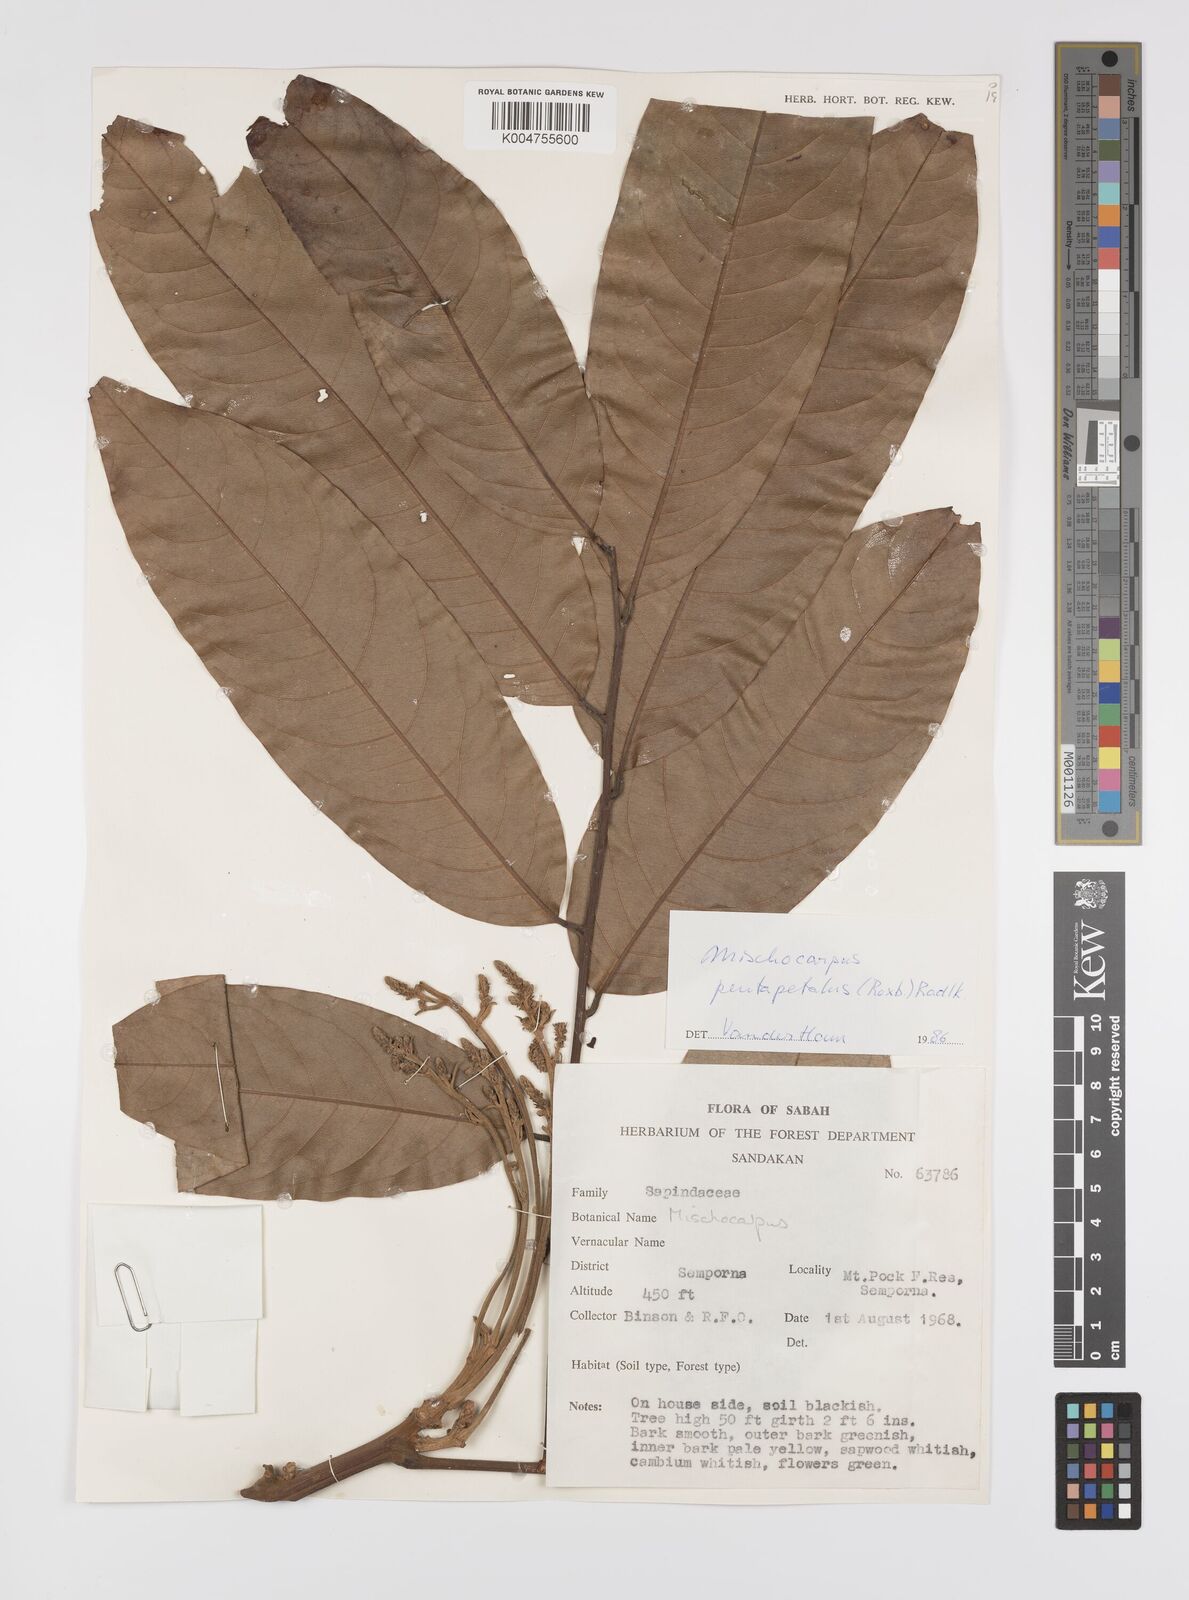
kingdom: Plantae
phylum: Tracheophyta
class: Magnoliopsida
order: Sapindales
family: Sapindaceae
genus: Mischocarpus
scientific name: Mischocarpus pentapetalus
